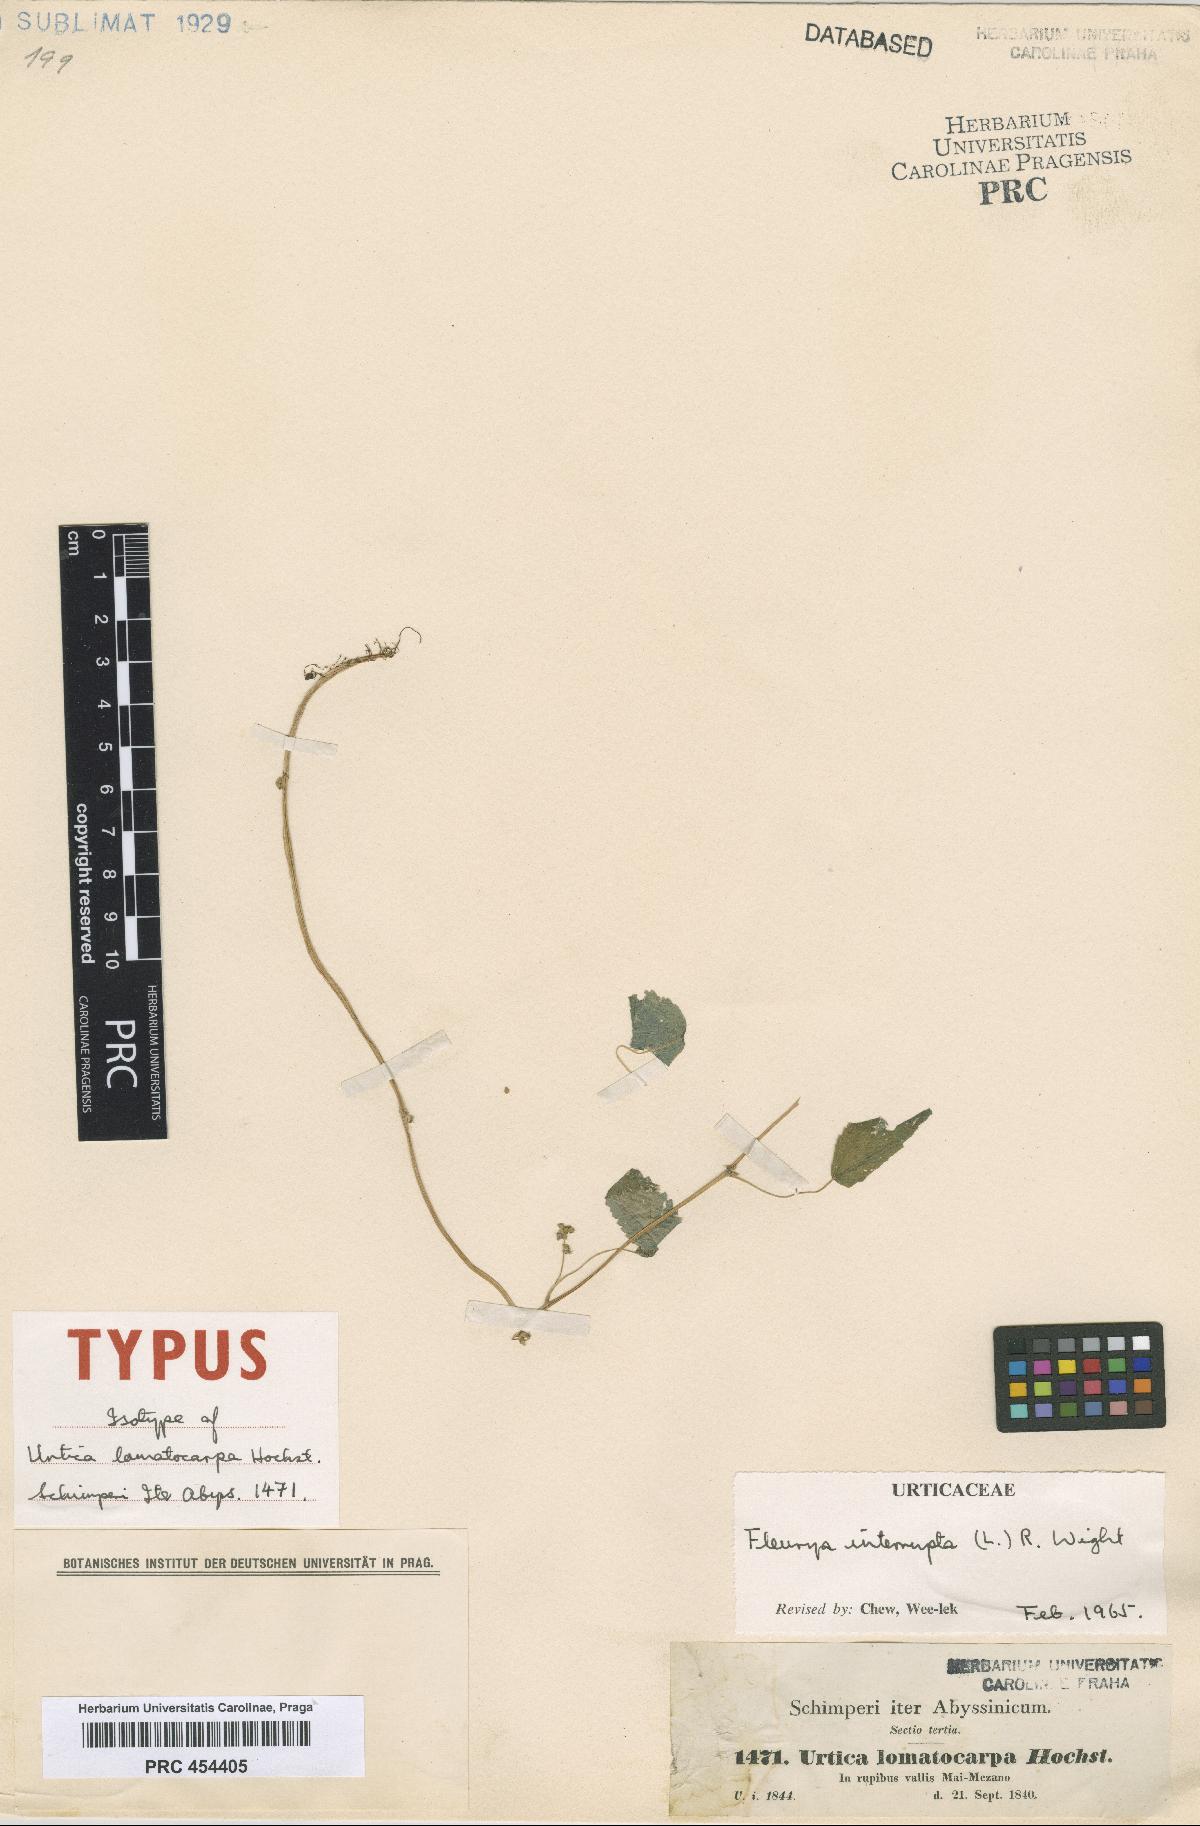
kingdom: Plantae
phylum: Tracheophyta
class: Magnoliopsida
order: Rosales
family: Urticaceae
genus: Laportea
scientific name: Laportea interrupta
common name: Hawaiian wood-nettle
